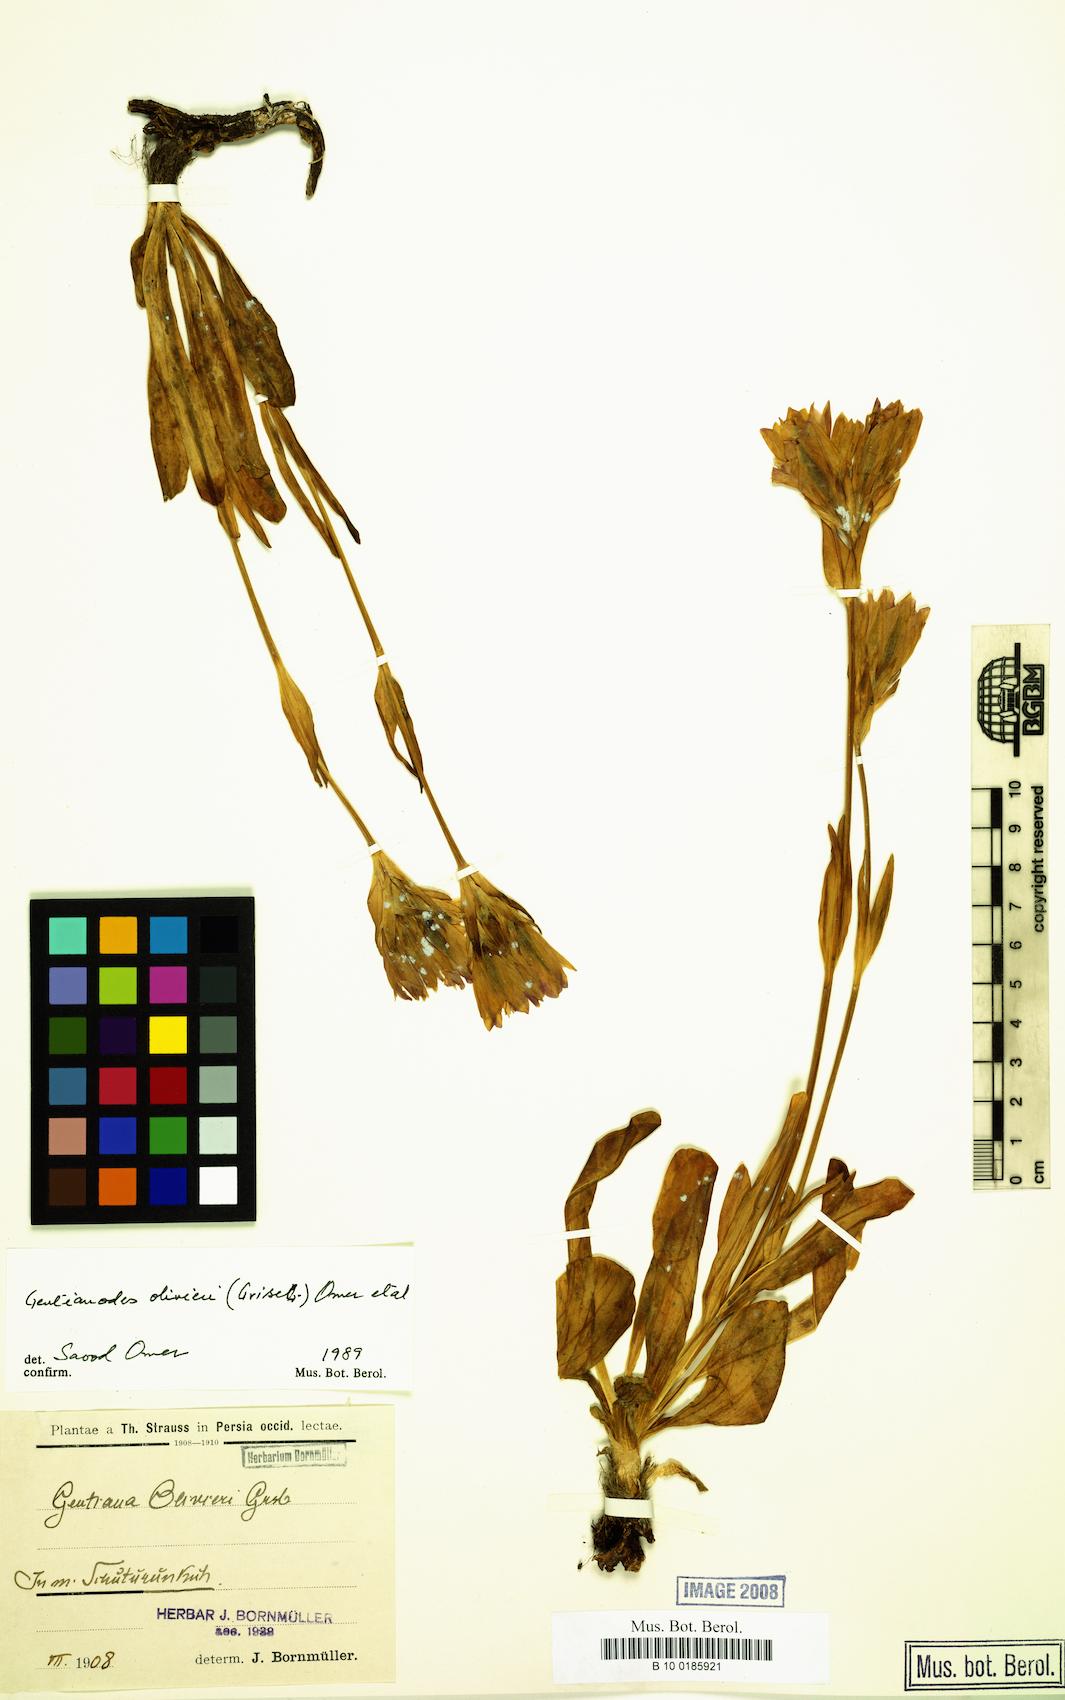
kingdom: Plantae
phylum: Tracheophyta
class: Magnoliopsida
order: Gentianales
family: Gentianaceae
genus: Gentiana
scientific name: Gentiana olivieri
